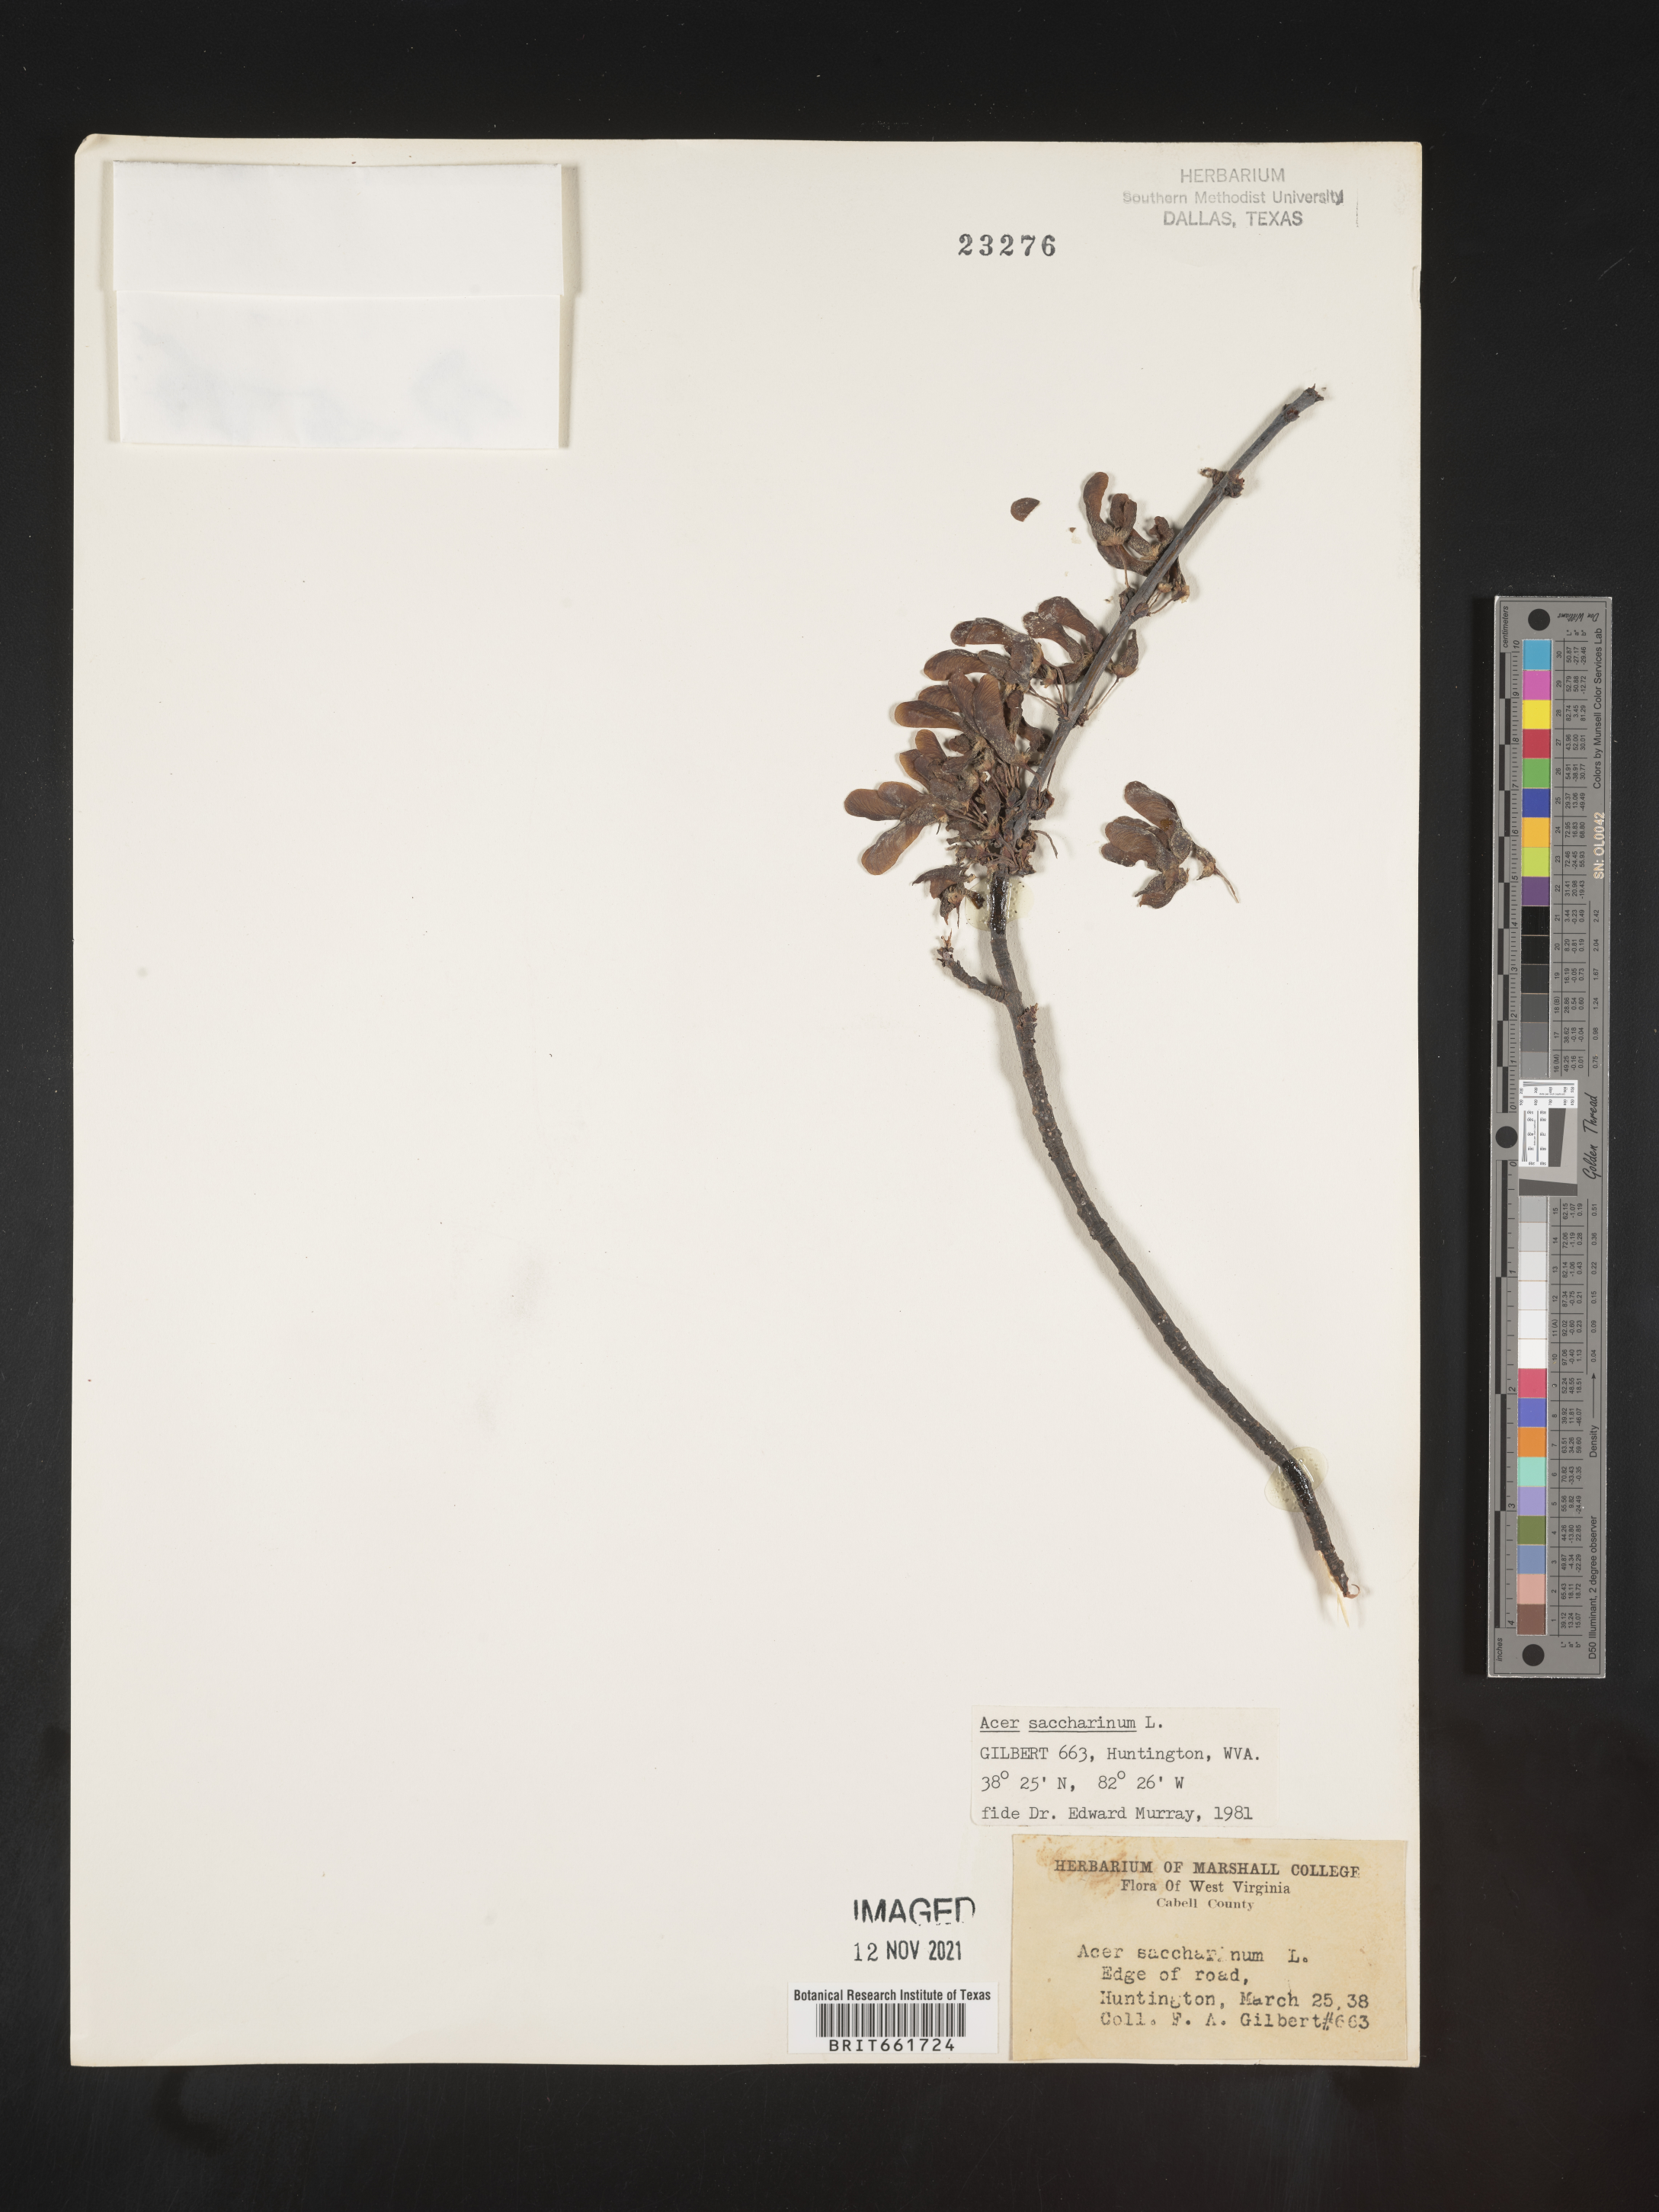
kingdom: Plantae
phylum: Tracheophyta
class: Magnoliopsida
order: Sapindales
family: Sapindaceae
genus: Acer
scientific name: Acer saccharinum
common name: Silver maple
